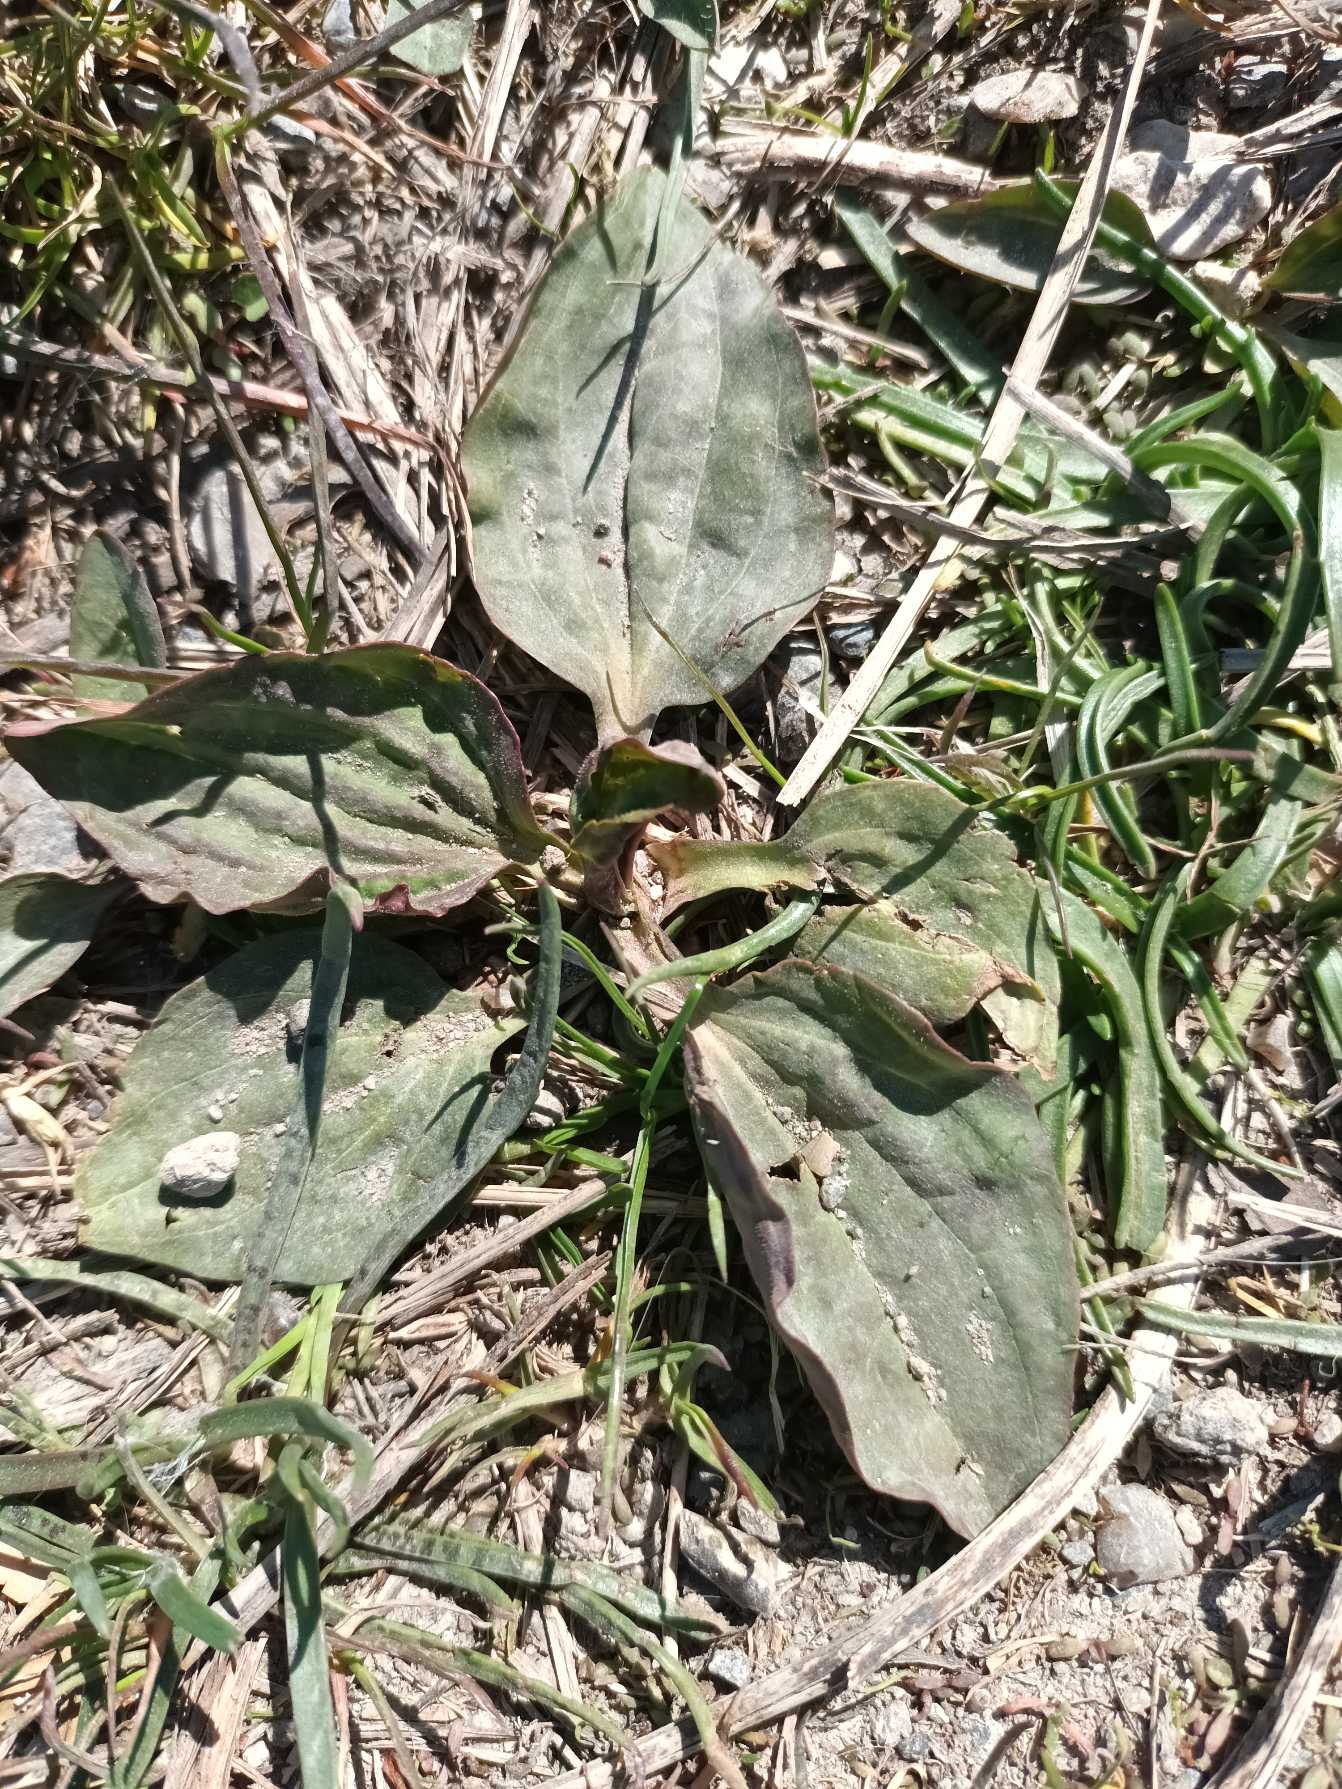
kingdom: Plantae
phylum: Tracheophyta
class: Magnoliopsida
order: Lamiales
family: Plantaginaceae
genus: Plantago
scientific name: Plantago major
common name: Glat vejbred
